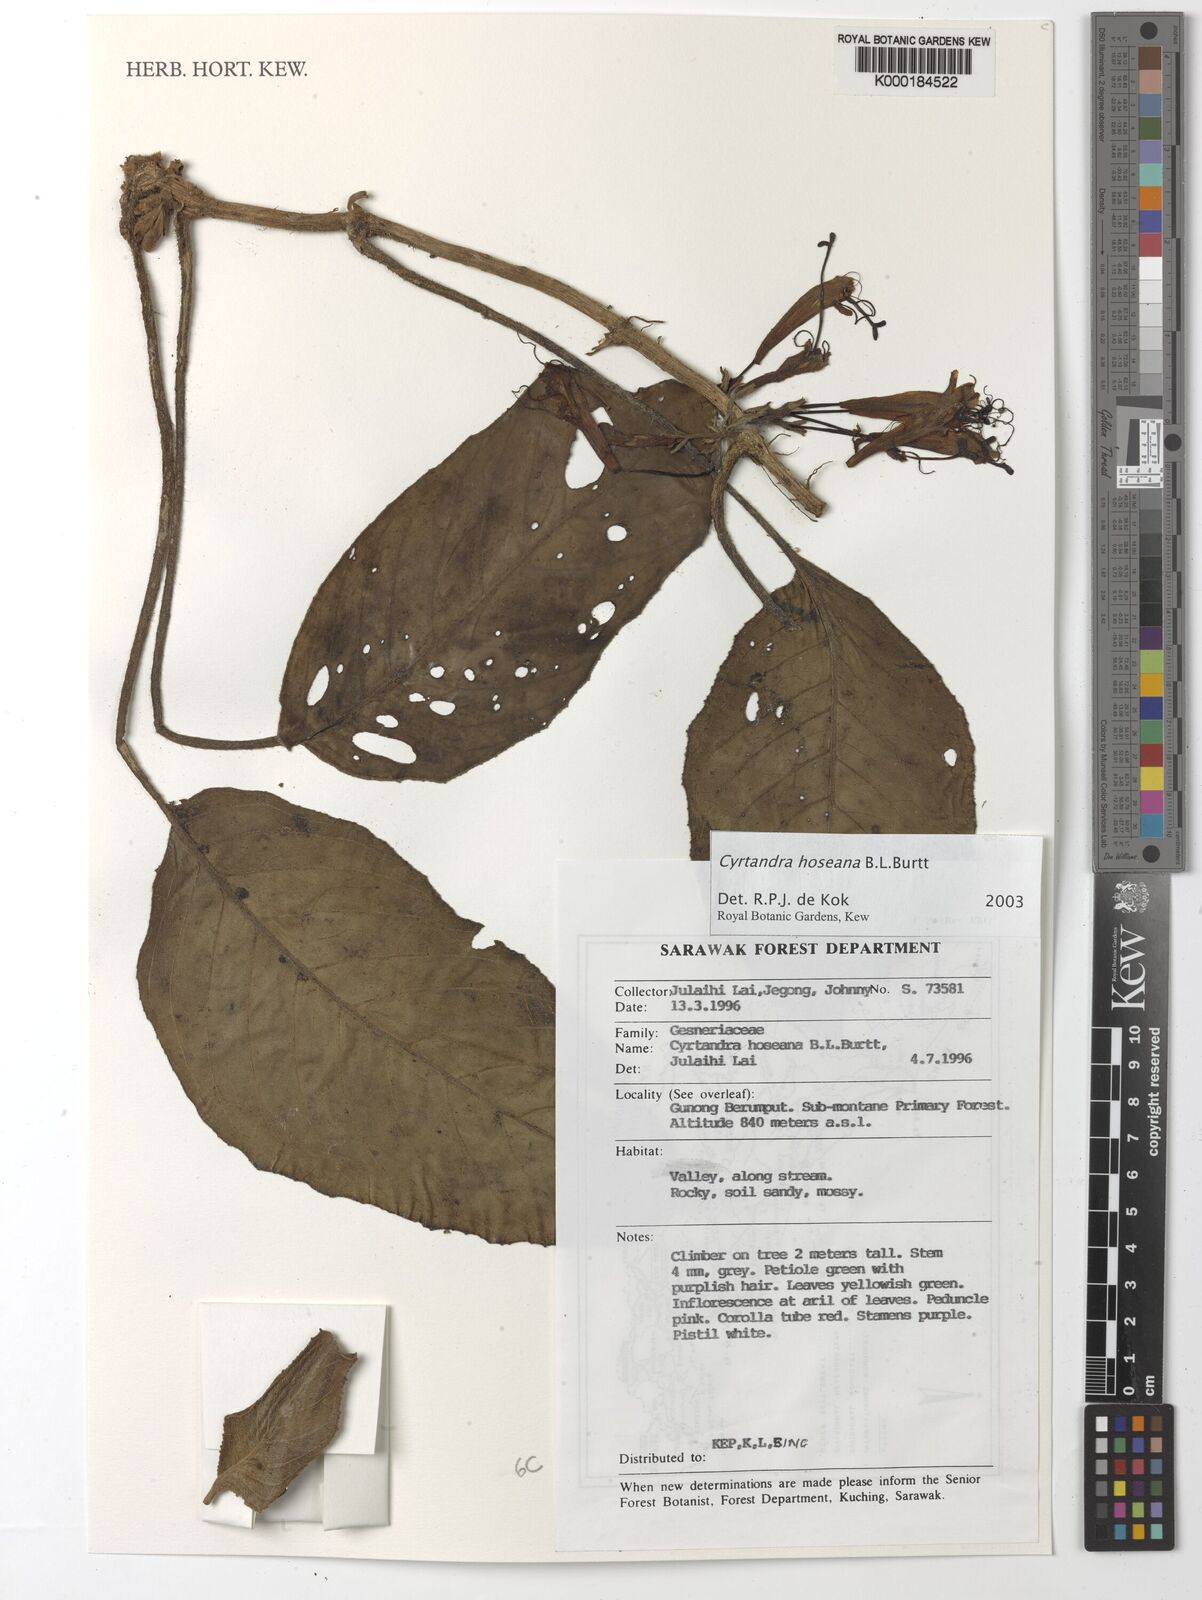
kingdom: Plantae
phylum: Tracheophyta
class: Magnoliopsida
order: Lamiales
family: Gesneriaceae
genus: Cyrtandra
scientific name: Cyrtandra hoseana
